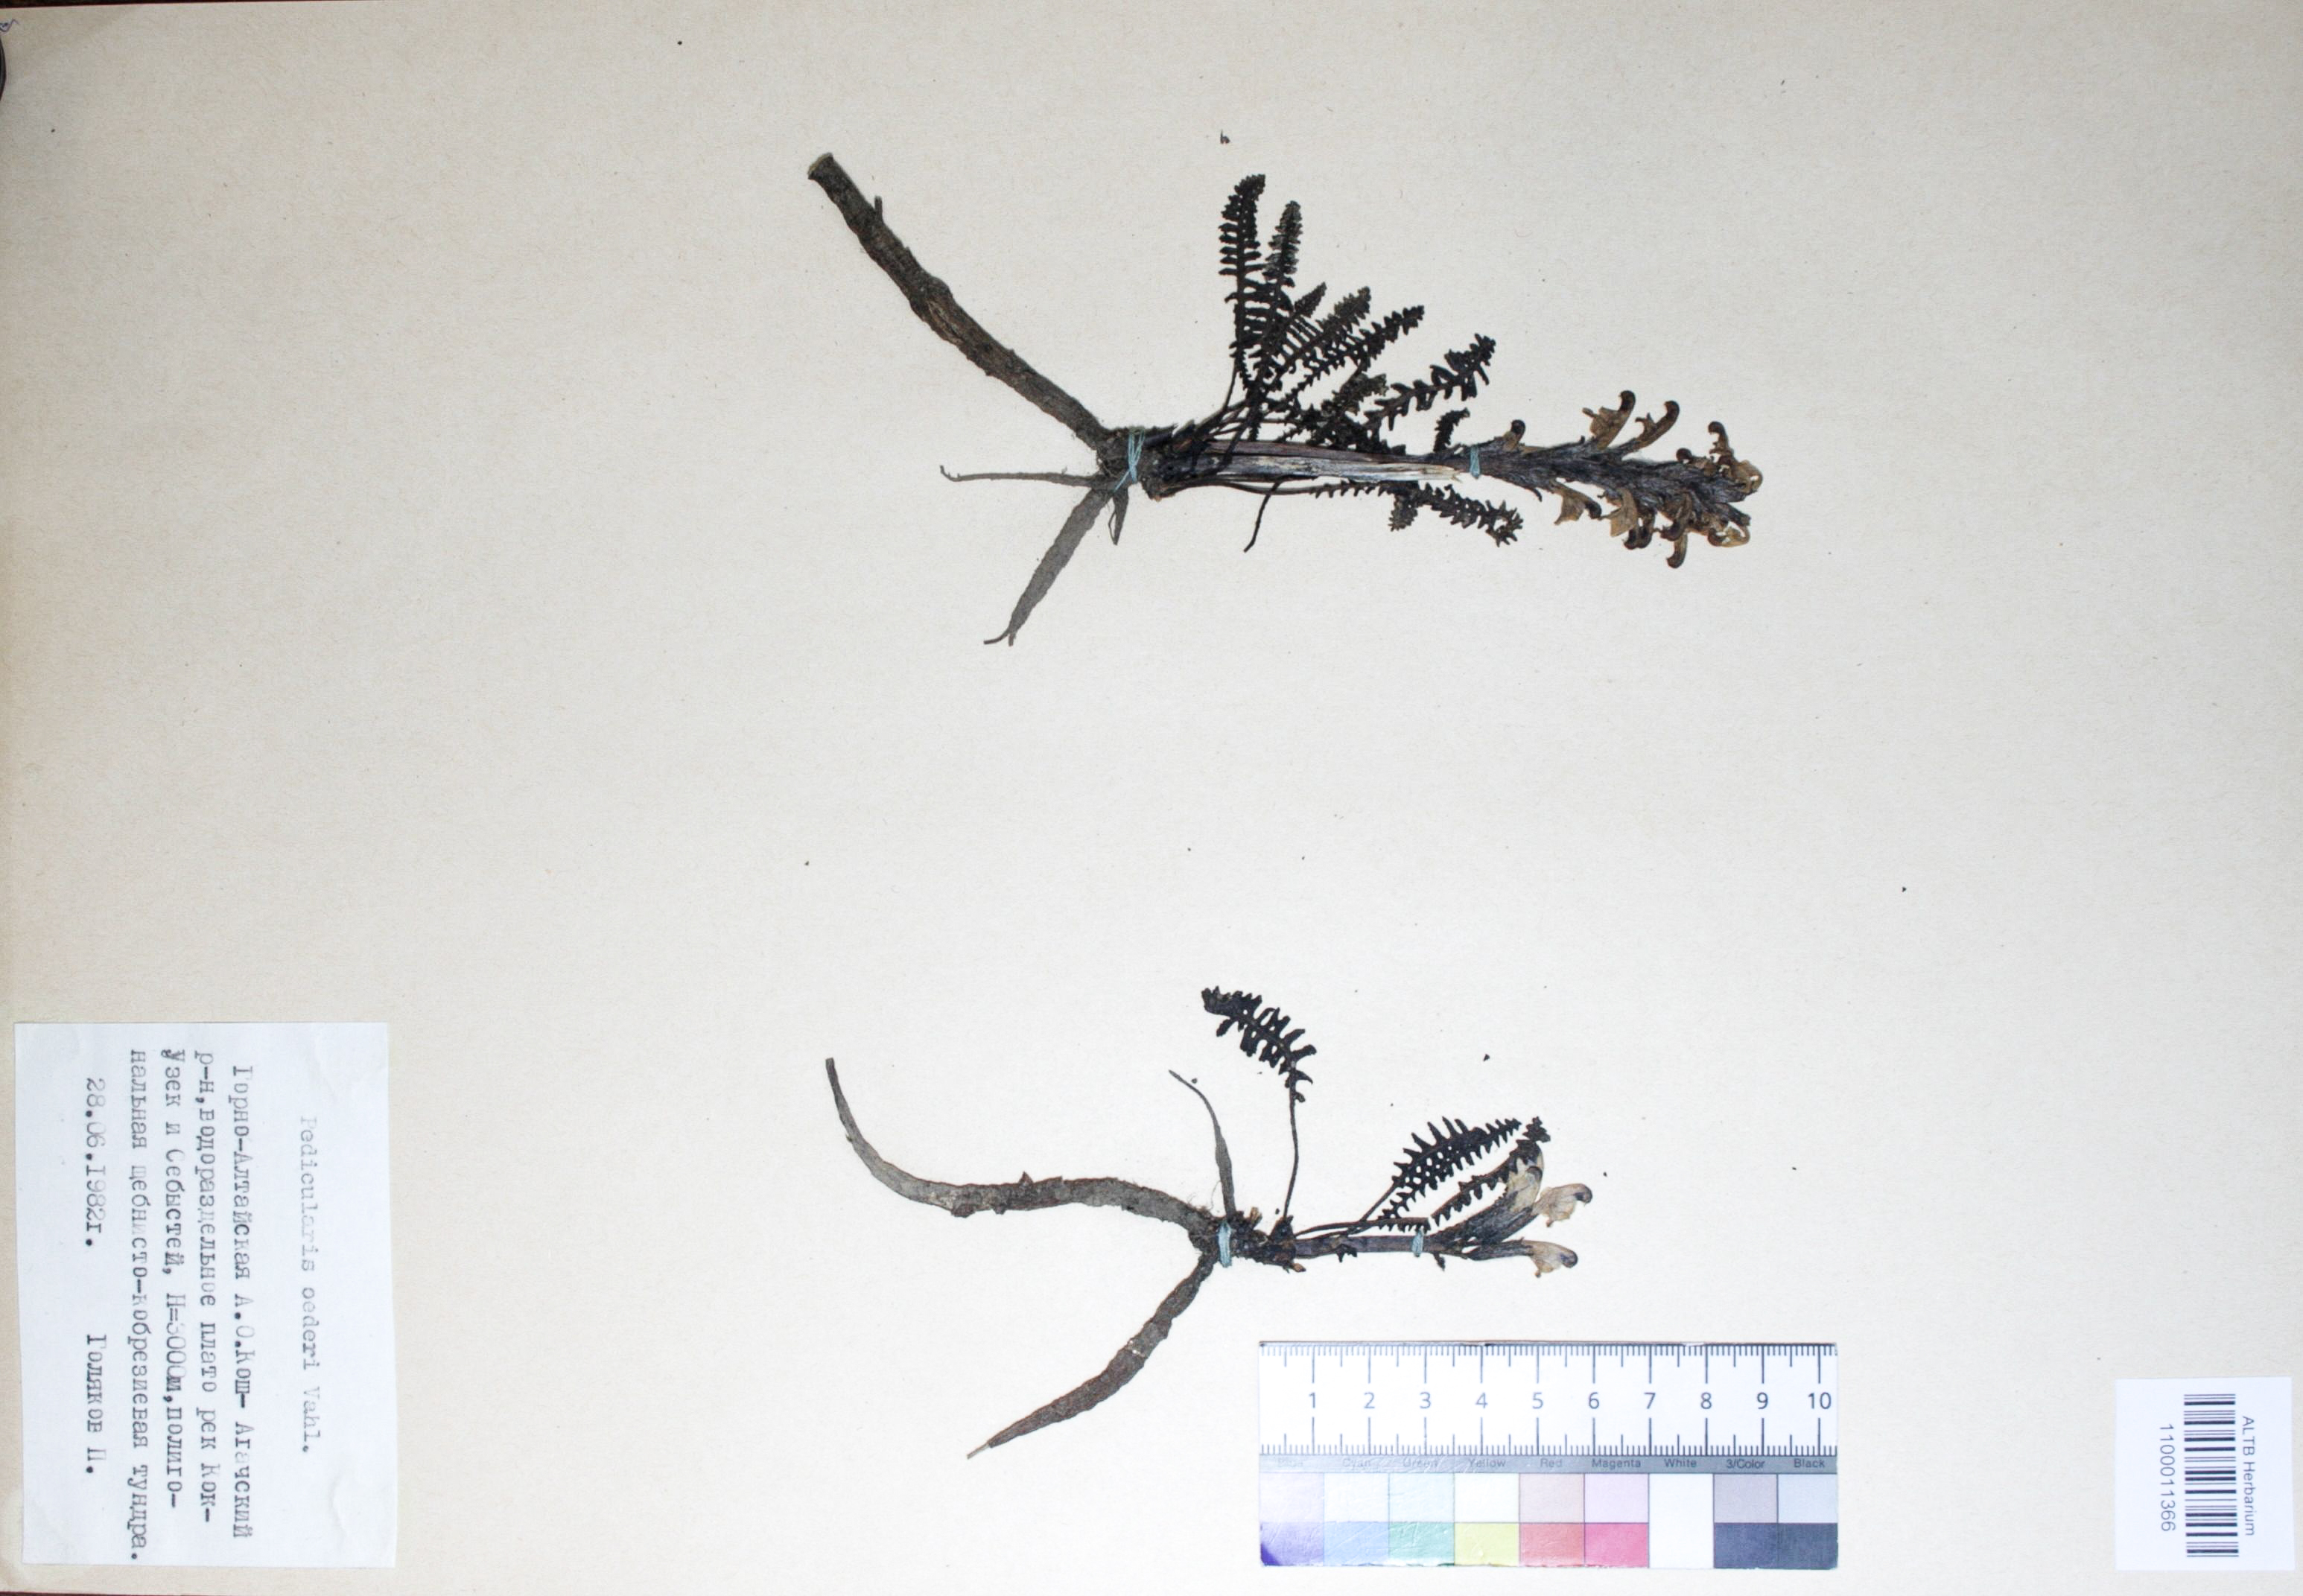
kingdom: Plantae
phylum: Tracheophyta
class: Magnoliopsida
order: Caryophyllales
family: Caryophyllaceae
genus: Silene
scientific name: Silene graminifolia
